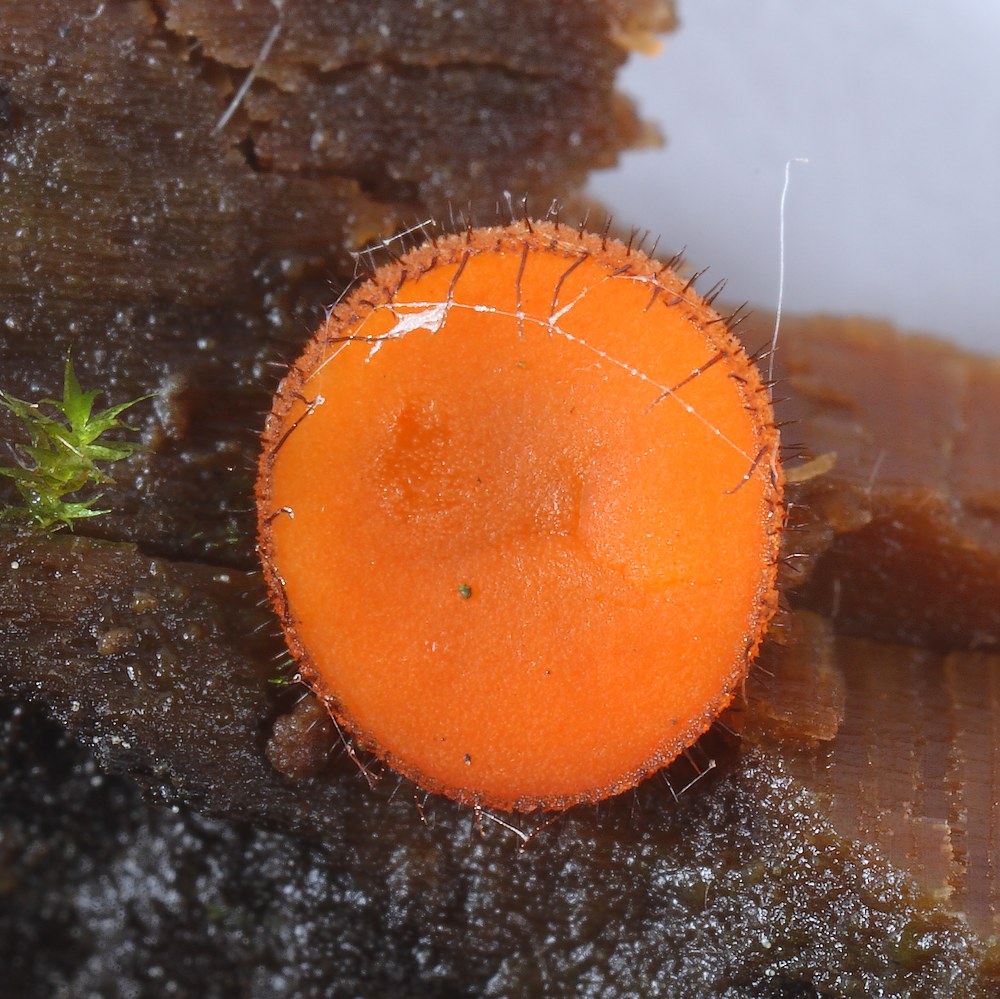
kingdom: Fungi
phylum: Ascomycota
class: Pezizomycetes
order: Pezizales
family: Pyronemataceae
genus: Scutellinia
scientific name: Scutellinia
